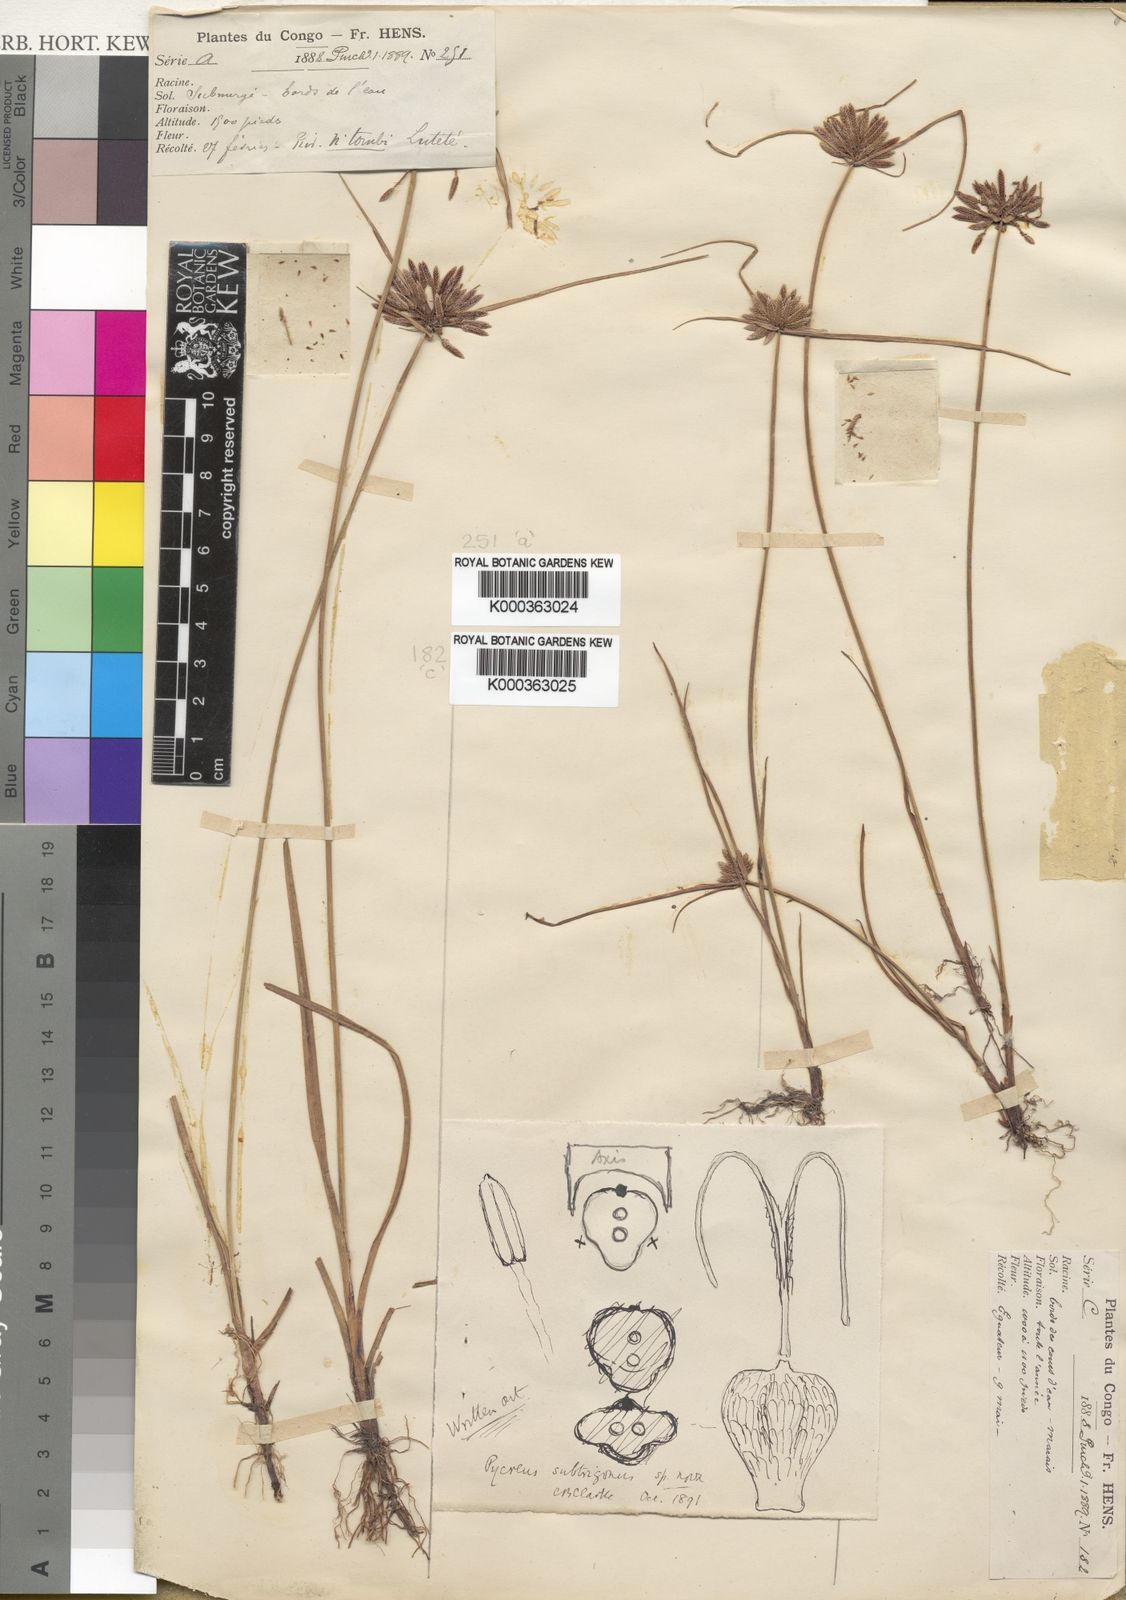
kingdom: Plantae
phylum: Tracheophyta
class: Liliopsida
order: Poales
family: Cyperaceae
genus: Cyperus
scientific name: Cyperus subtrigonus
